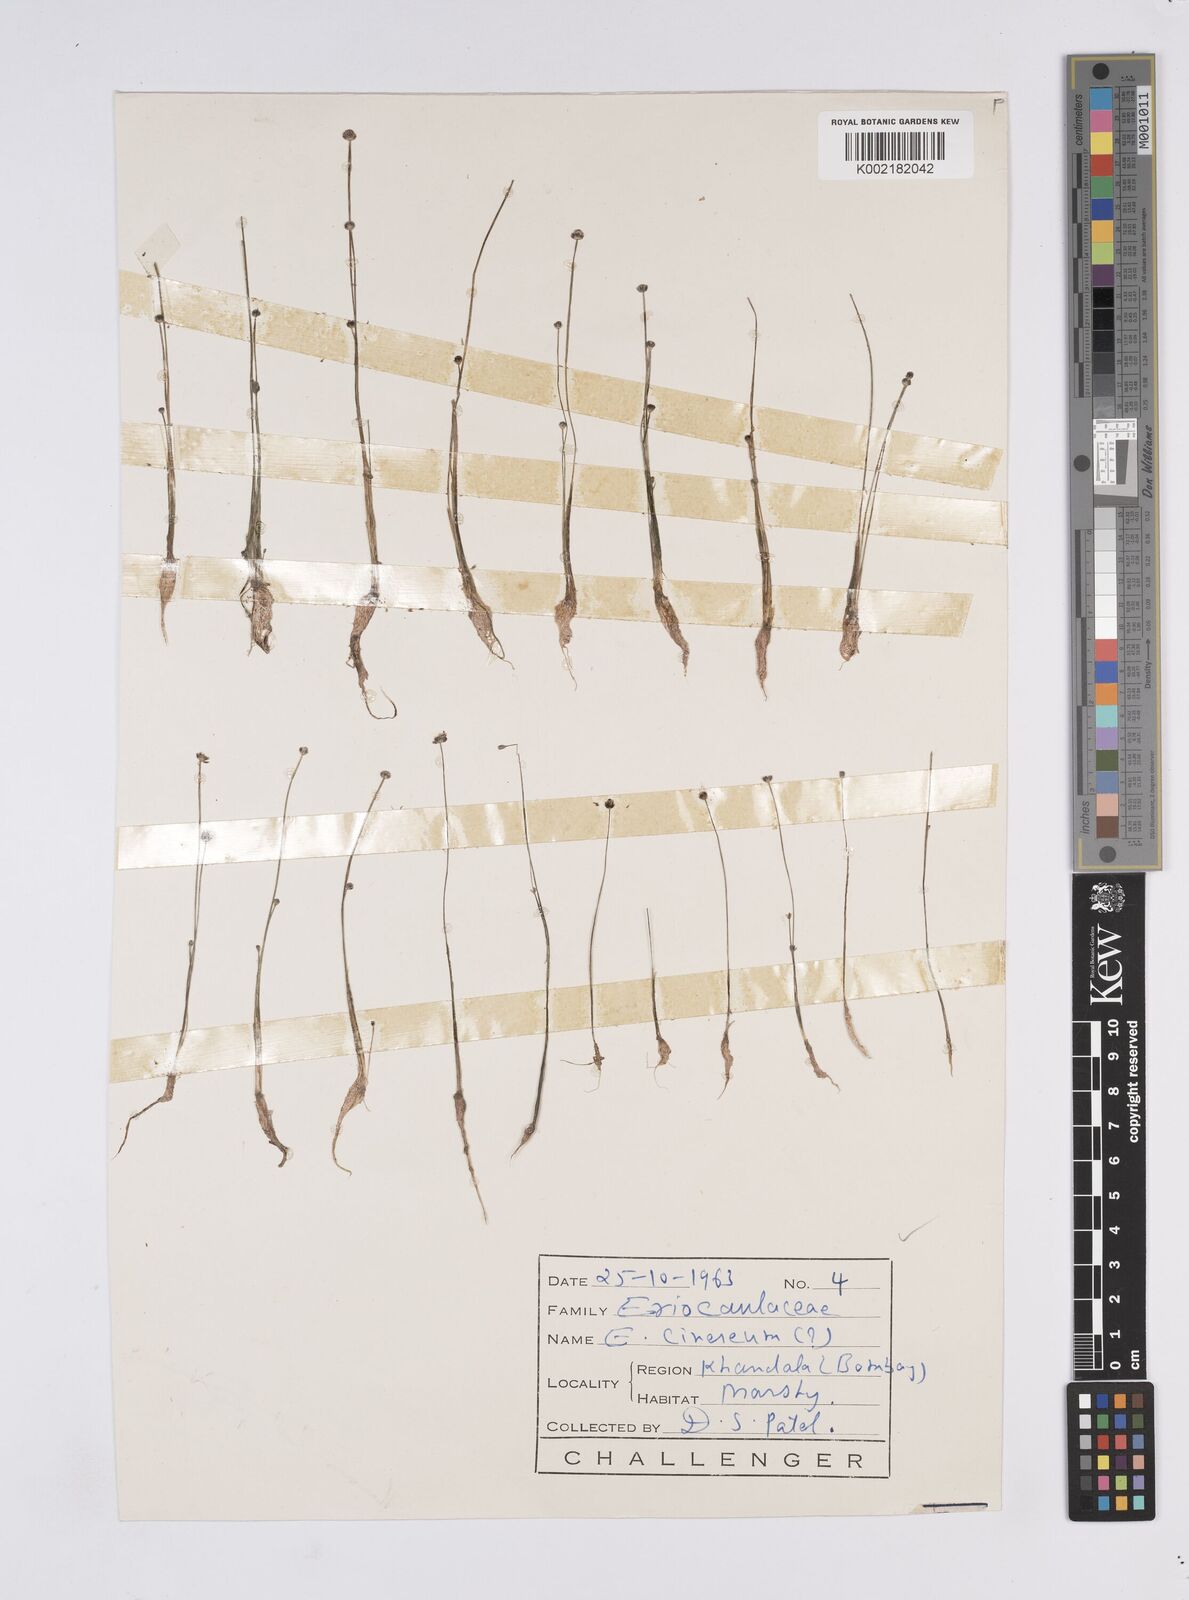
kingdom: Plantae
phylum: Tracheophyta
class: Liliopsida
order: Poales
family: Eriocaulaceae
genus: Eriocaulon
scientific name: Eriocaulon cinereum
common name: Ashy pipewort
